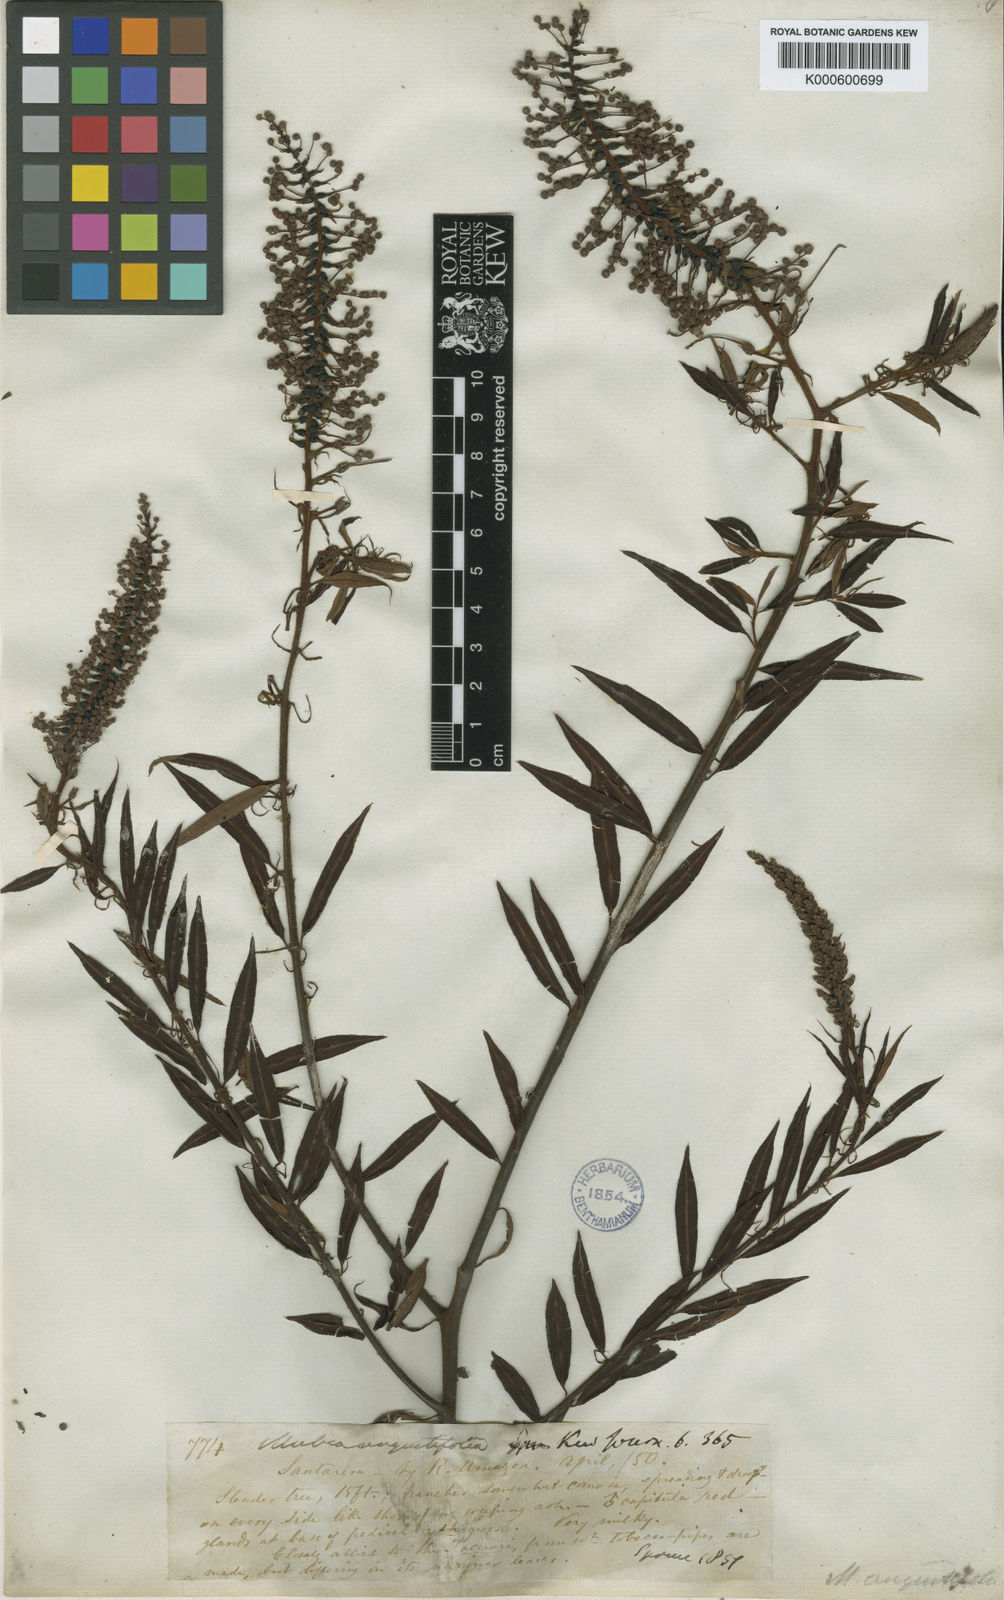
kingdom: Plantae
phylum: Tracheophyta
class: Magnoliopsida
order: Malpighiales
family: Euphorbiaceae
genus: Mabea
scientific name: Mabea angustifolia
